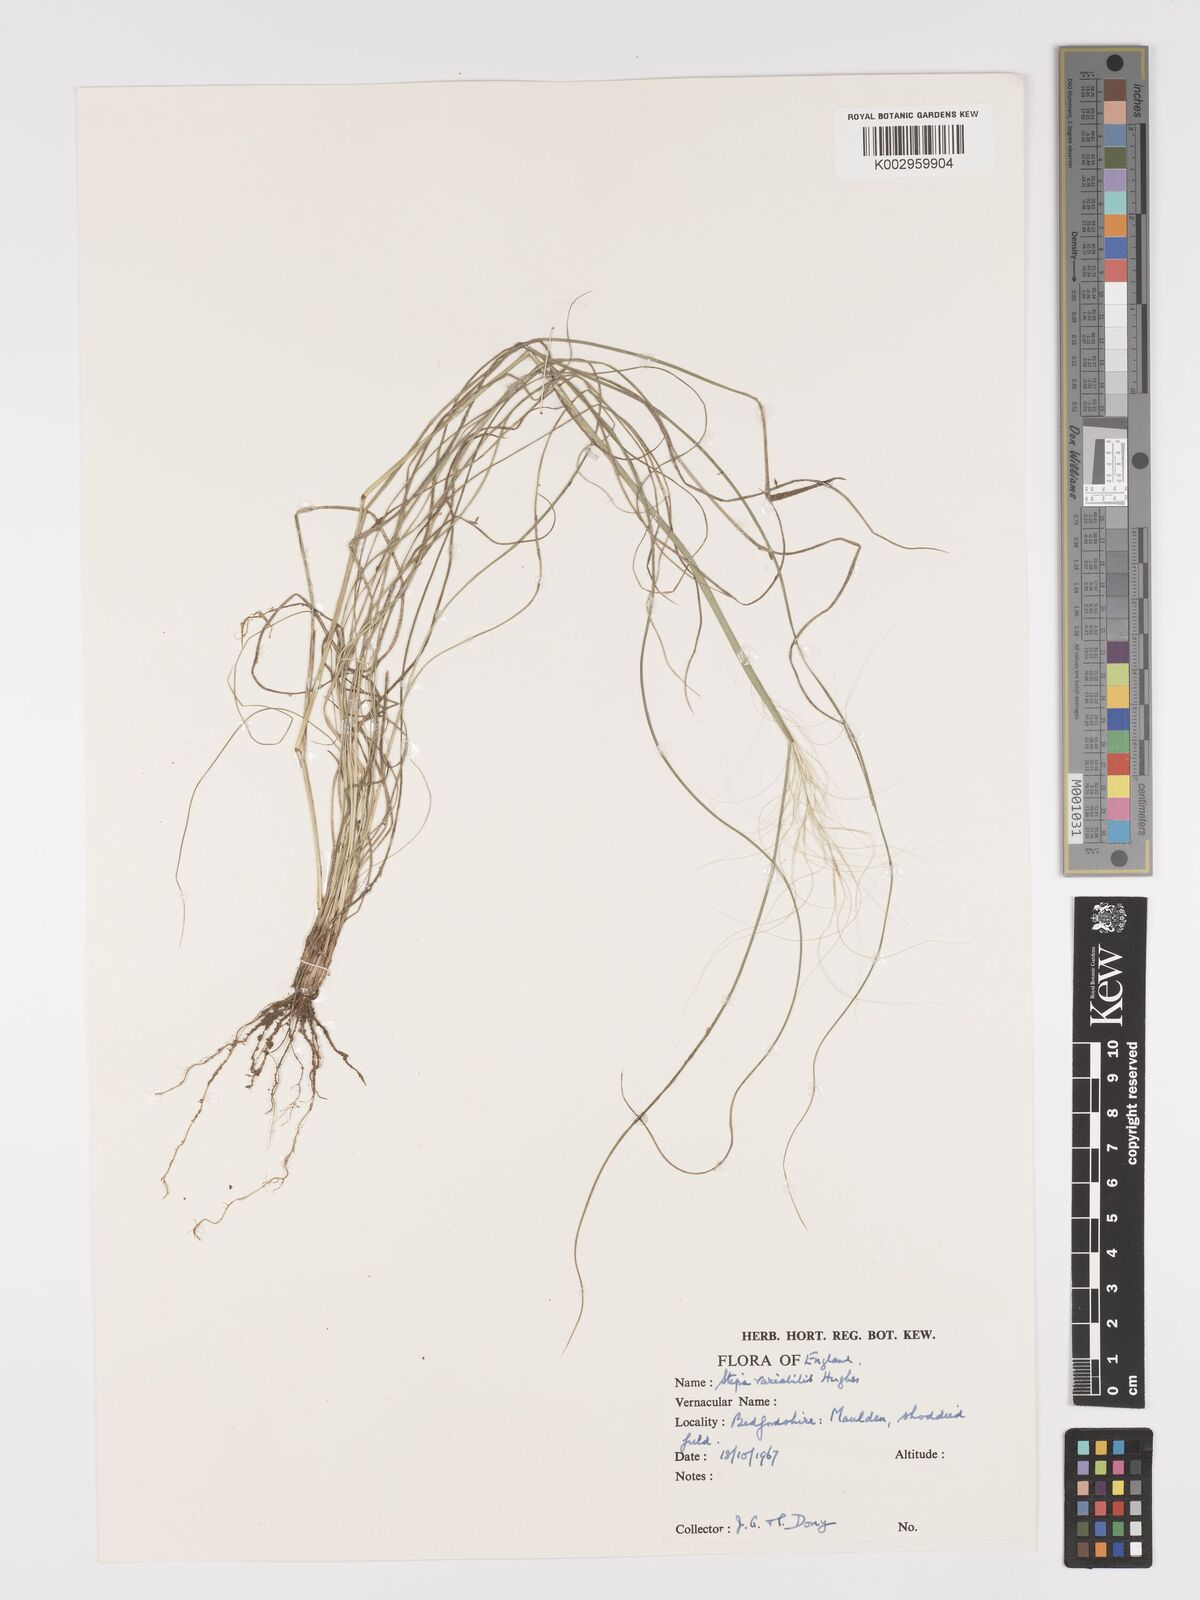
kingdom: Plantae
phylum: Tracheophyta
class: Liliopsida
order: Poales
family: Poaceae
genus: Austrostipa
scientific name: Austrostipa variabilis
